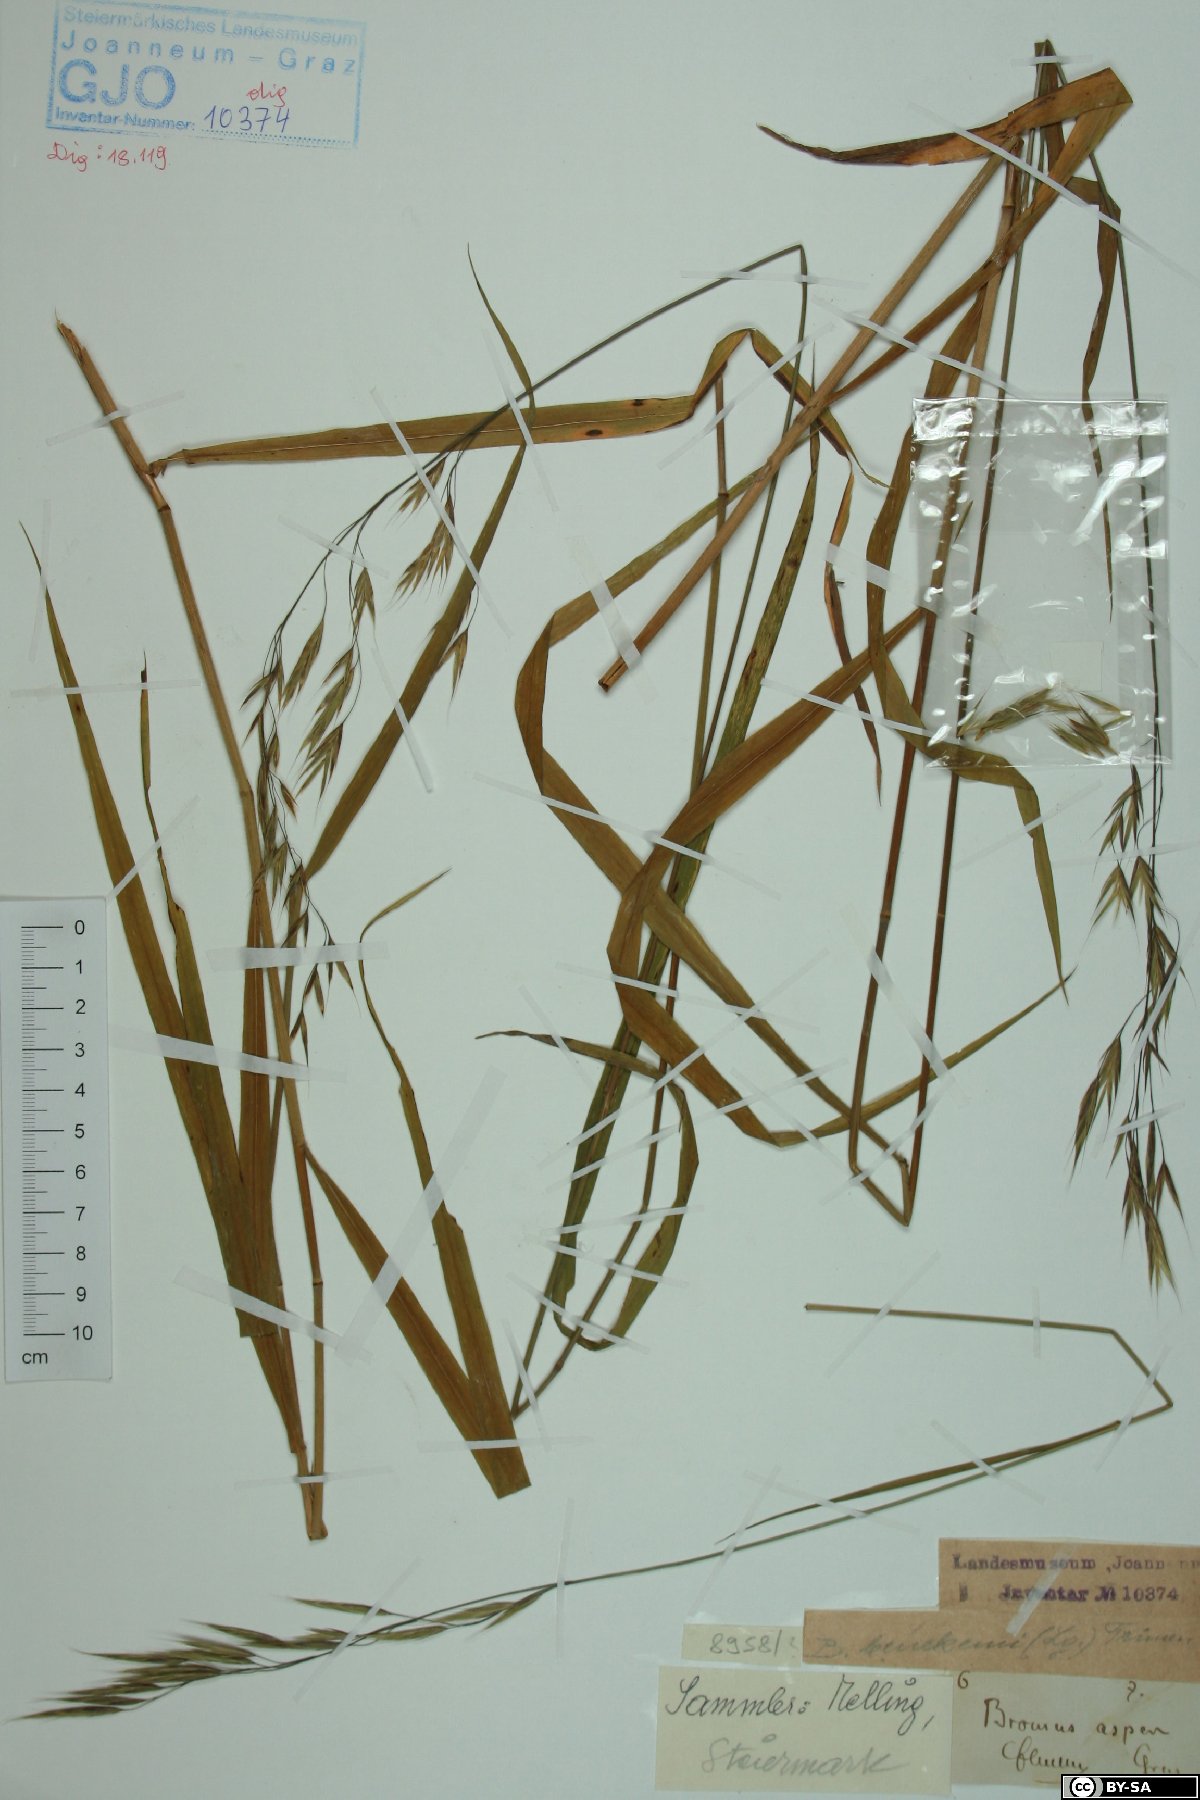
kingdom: Plantae
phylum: Tracheophyta
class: Liliopsida
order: Poales
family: Poaceae
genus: Bromus
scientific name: Bromus ramosus
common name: Hairy brome
